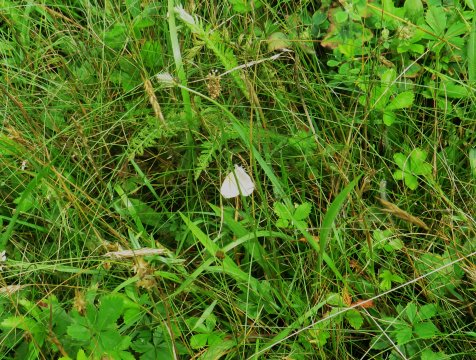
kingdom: Animalia
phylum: Arthropoda
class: Insecta
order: Lepidoptera
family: Nymphalidae
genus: Coenonympha
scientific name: Coenonympha tullia
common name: Large Heath
